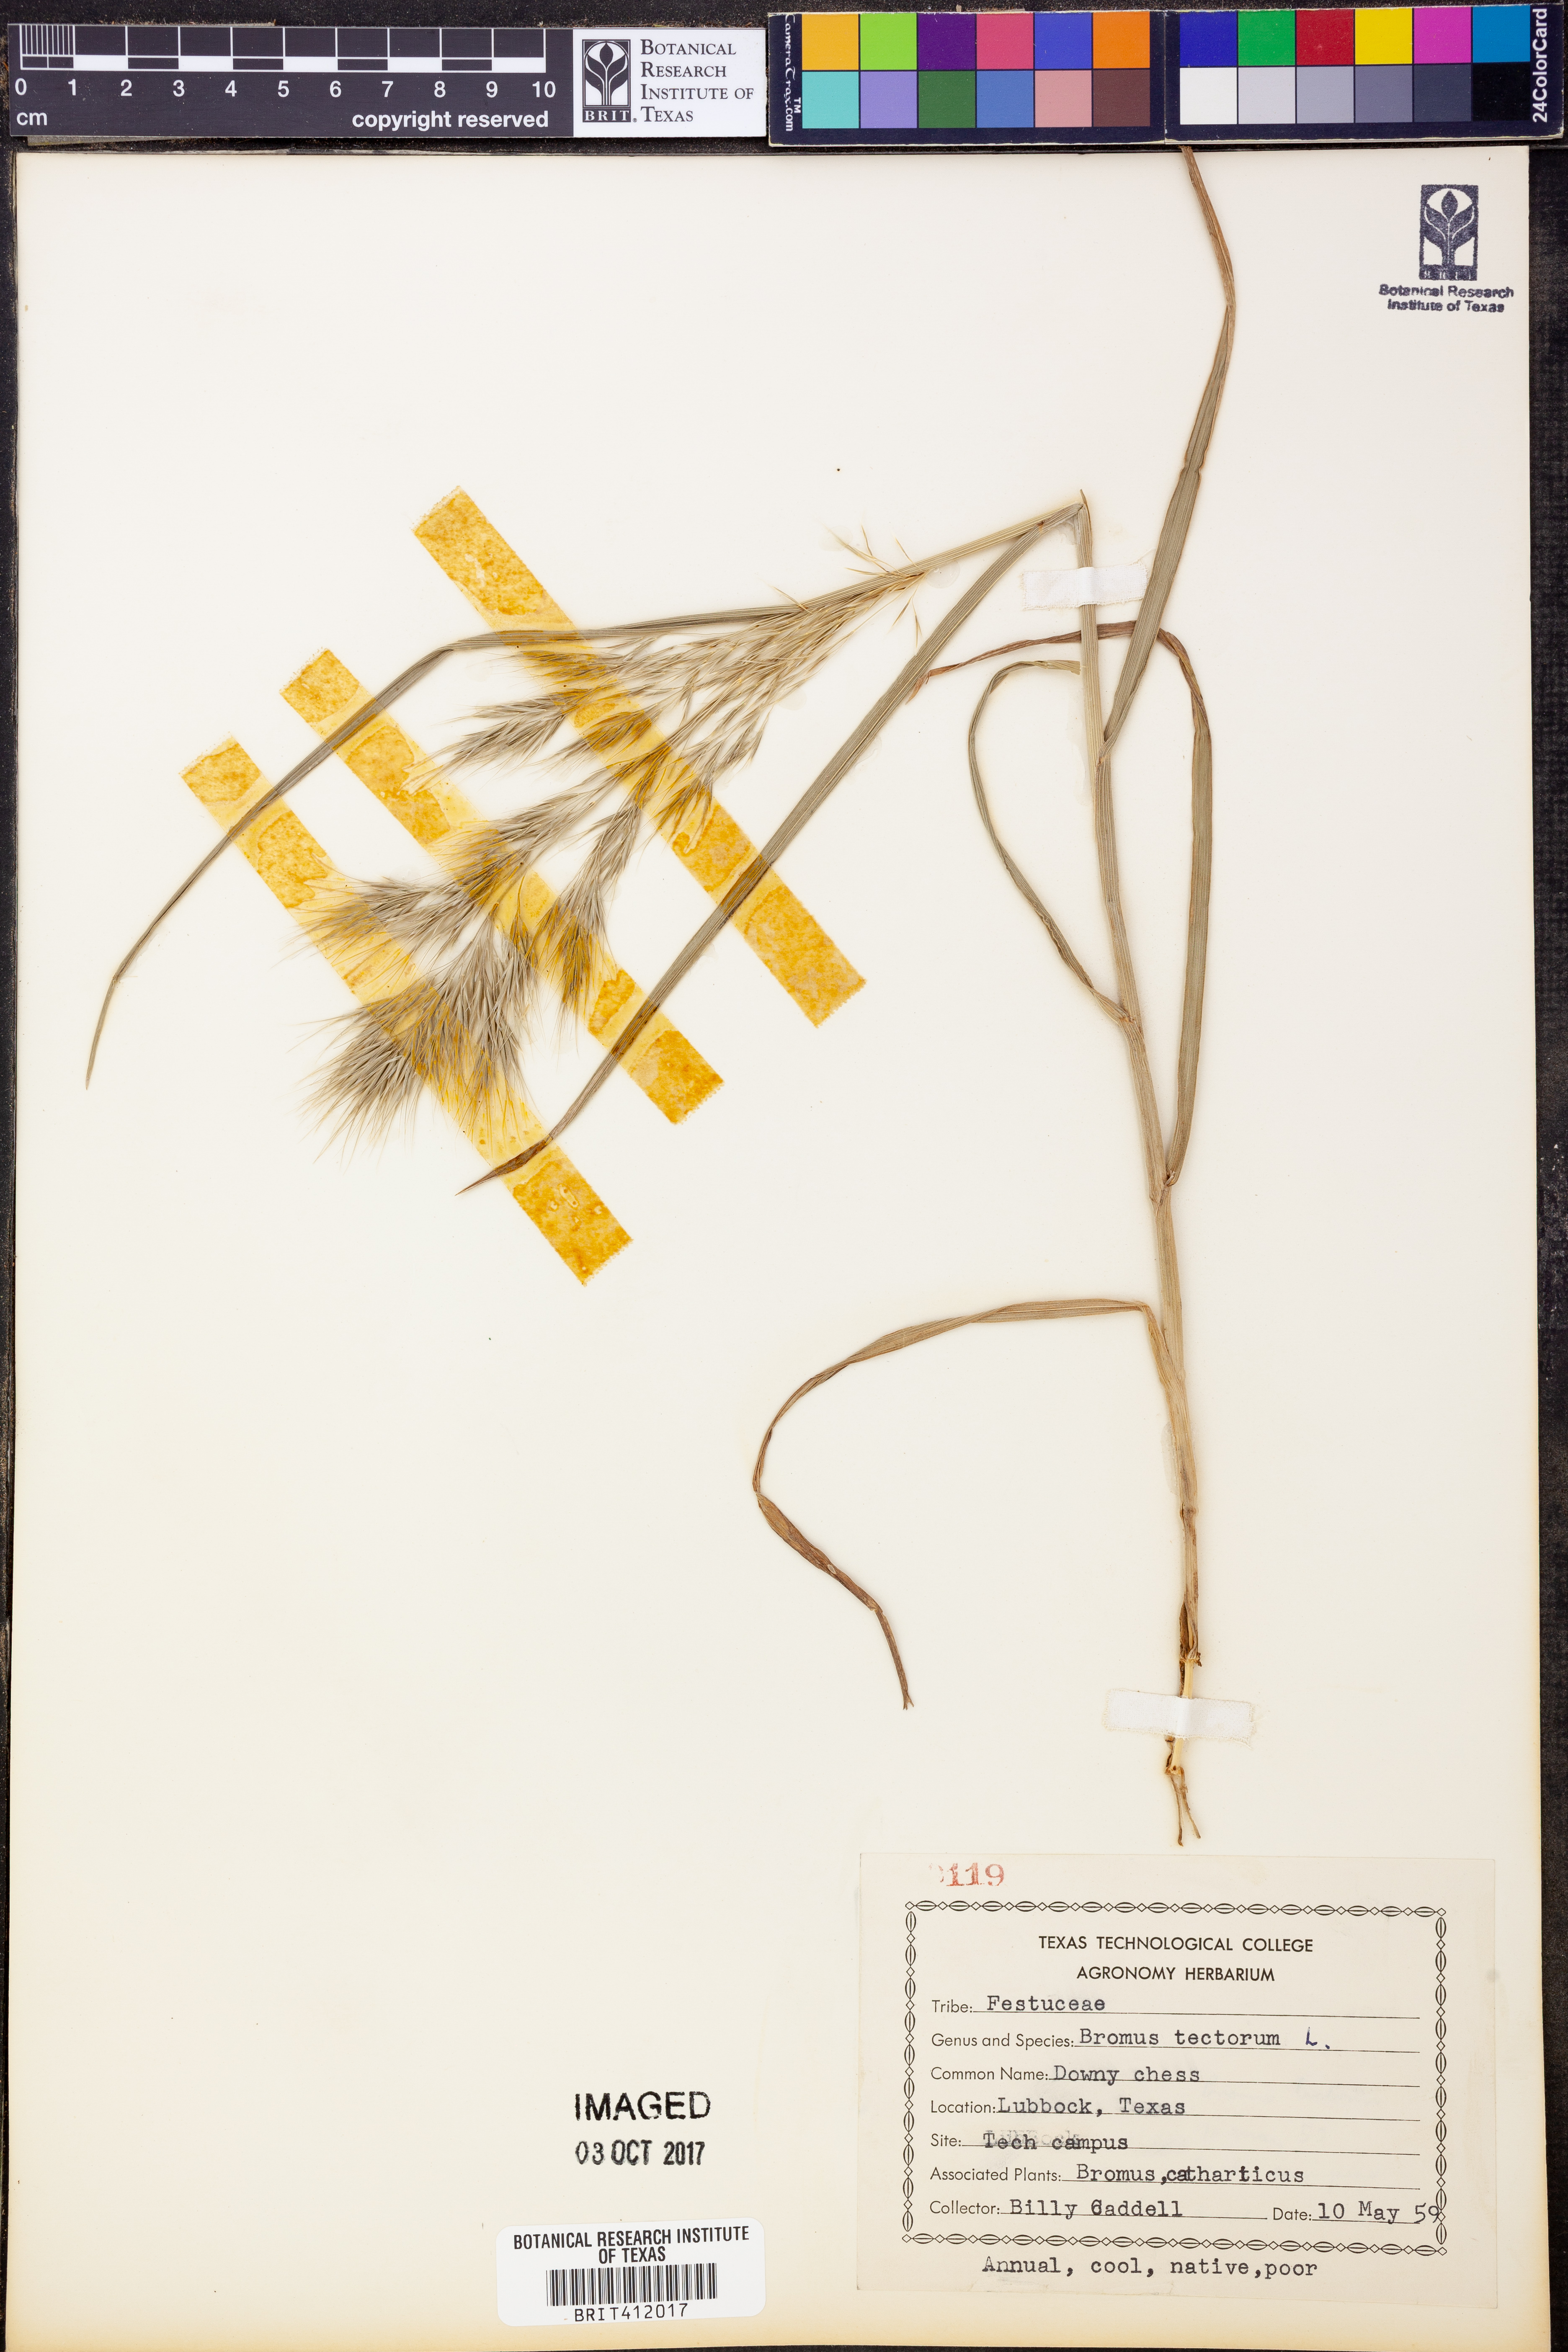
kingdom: Plantae
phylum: Tracheophyta
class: Liliopsida
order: Poales
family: Poaceae
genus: Bromus
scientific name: Bromus tectorum
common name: Cheatgrass
